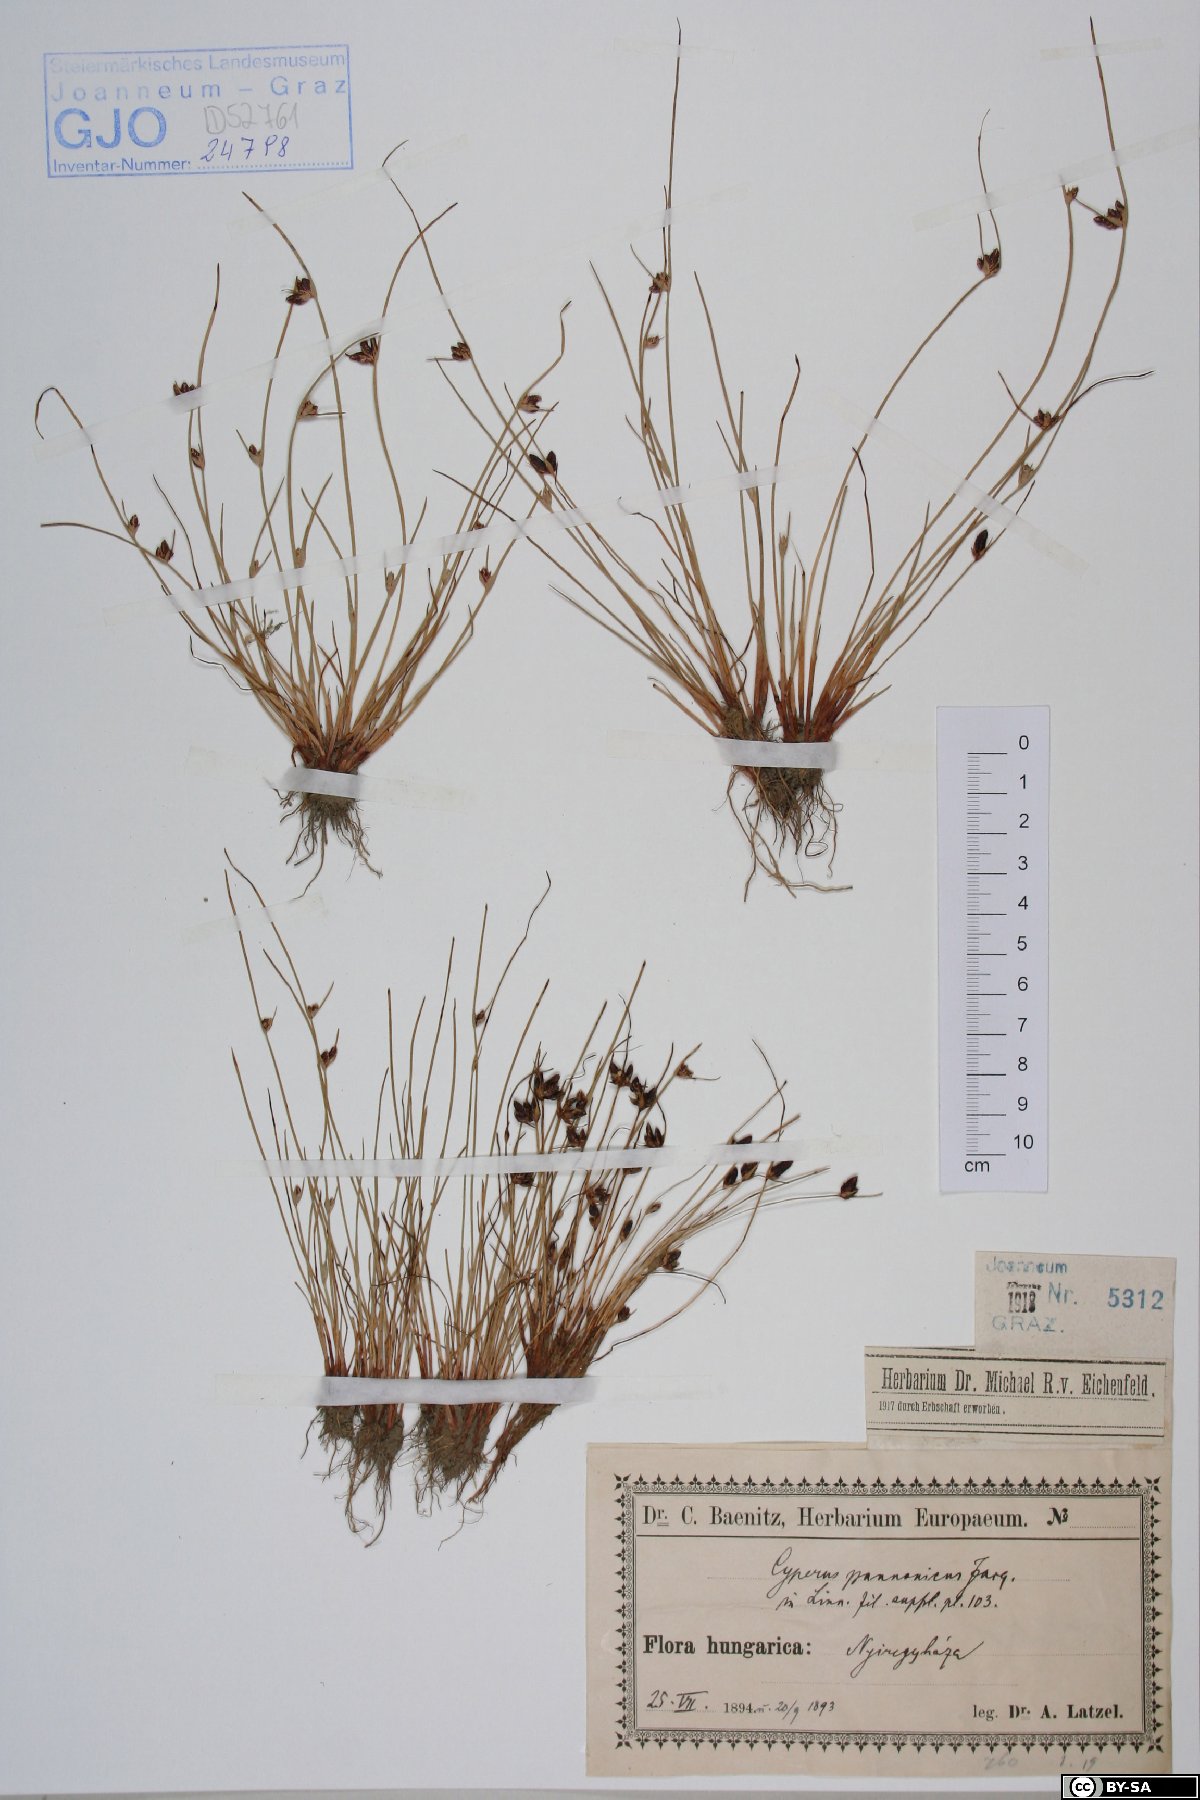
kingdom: Plantae
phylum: Tracheophyta
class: Liliopsida
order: Poales
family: Cyperaceae
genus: Cyperus
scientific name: Cyperus pannonicus
